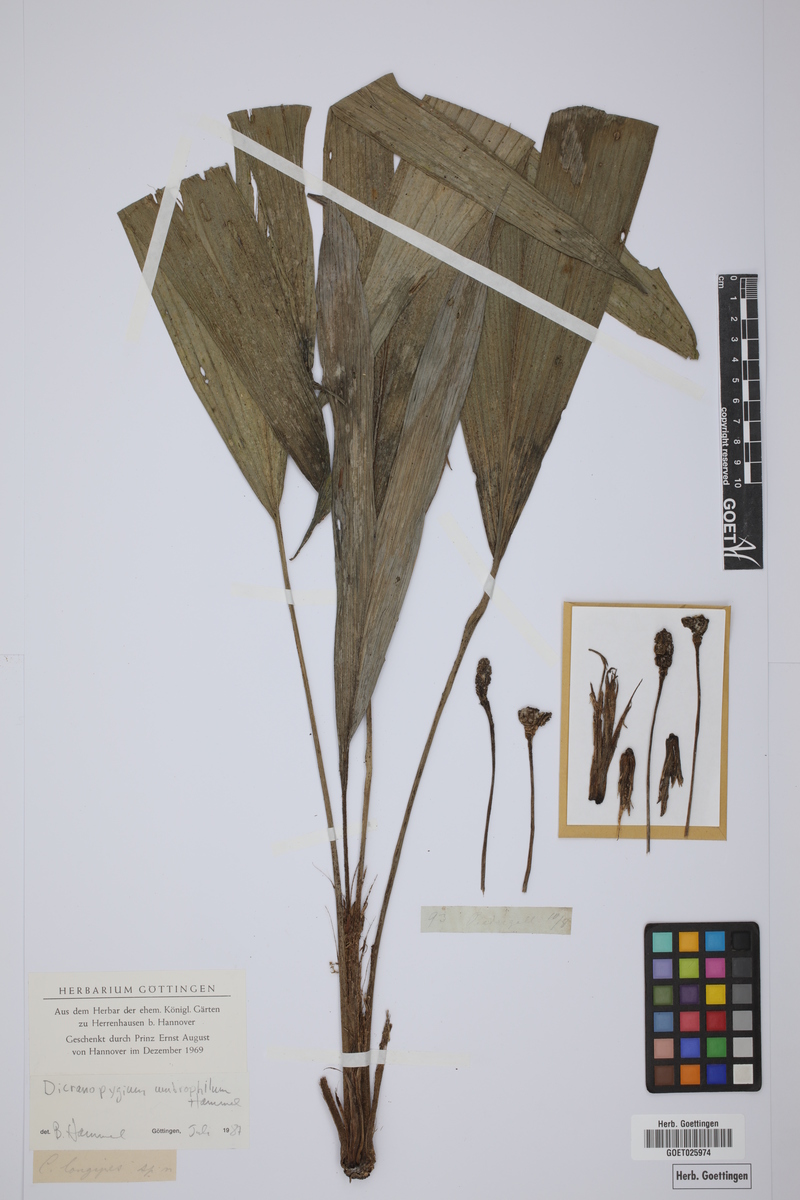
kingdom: Plantae
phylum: Tracheophyta
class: Liliopsida
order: Pandanales
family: Cyclanthaceae
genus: Dicranopygium
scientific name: Dicranopygium umbrophilum
